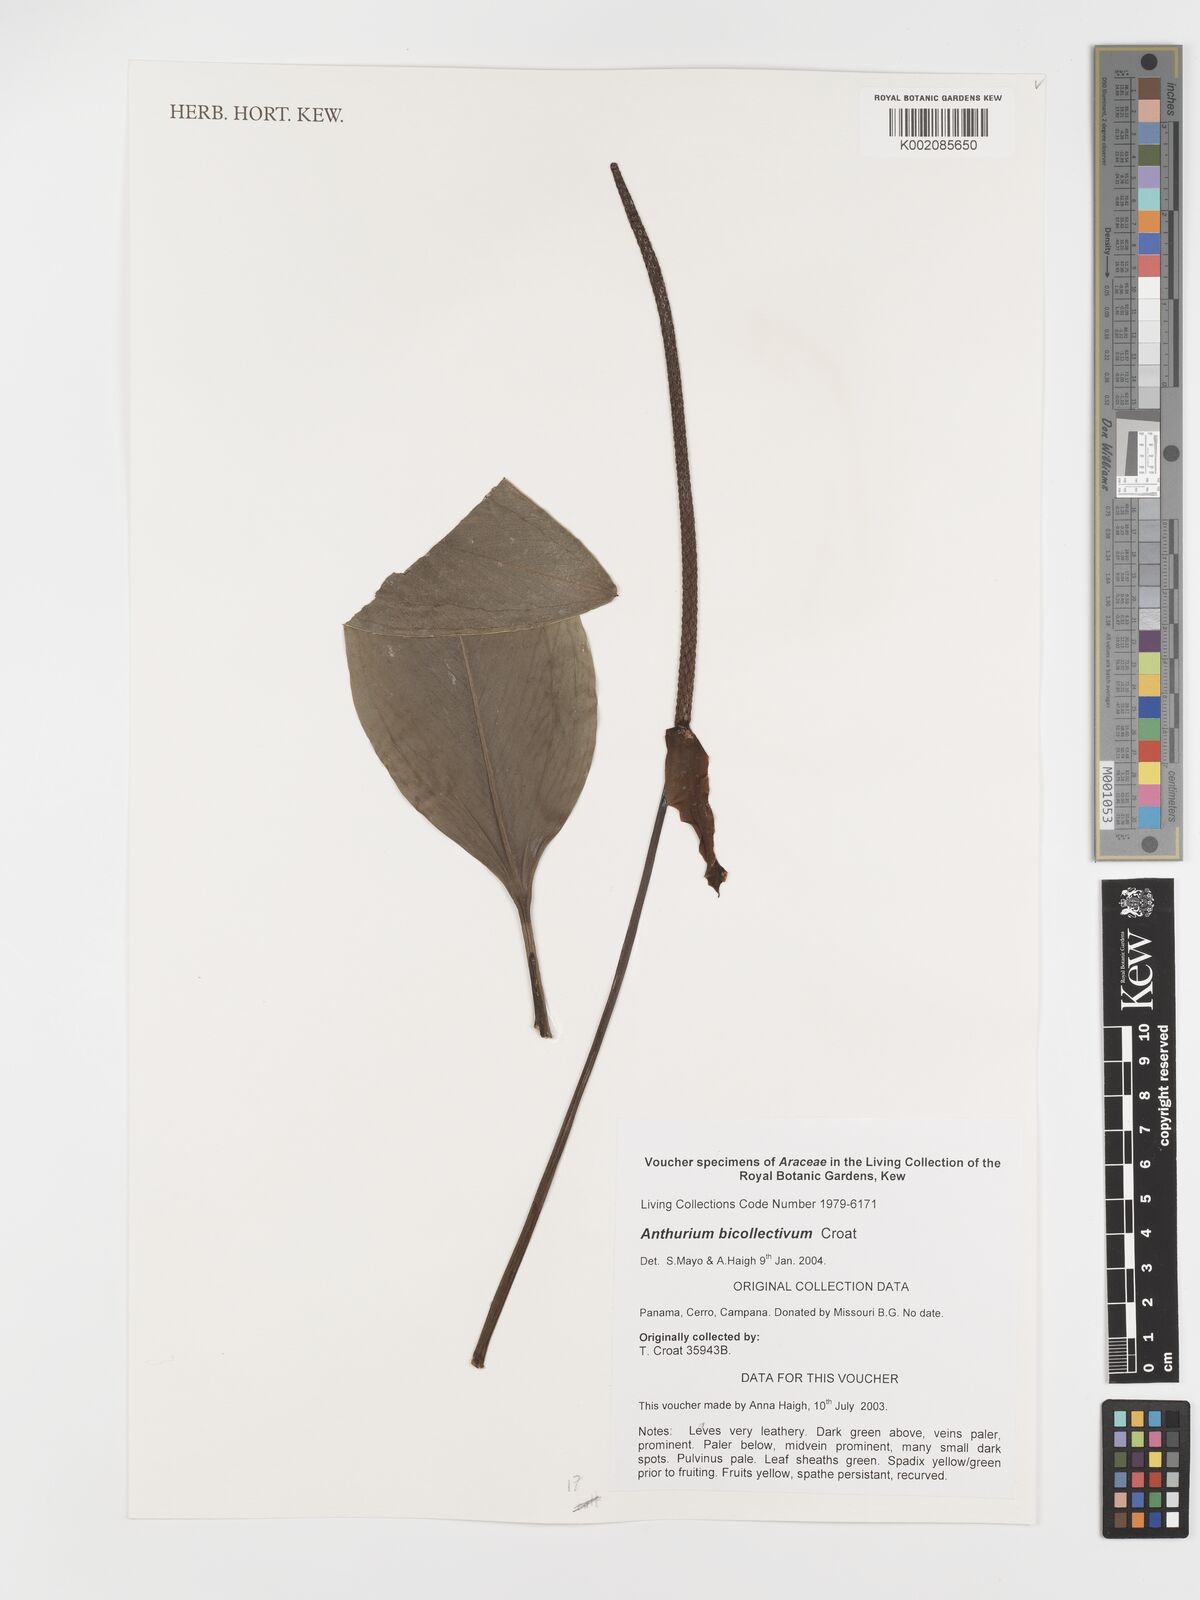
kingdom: Plantae
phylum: Tracheophyta
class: Liliopsida
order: Alismatales
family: Araceae
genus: Anthurium
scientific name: Anthurium durandii
